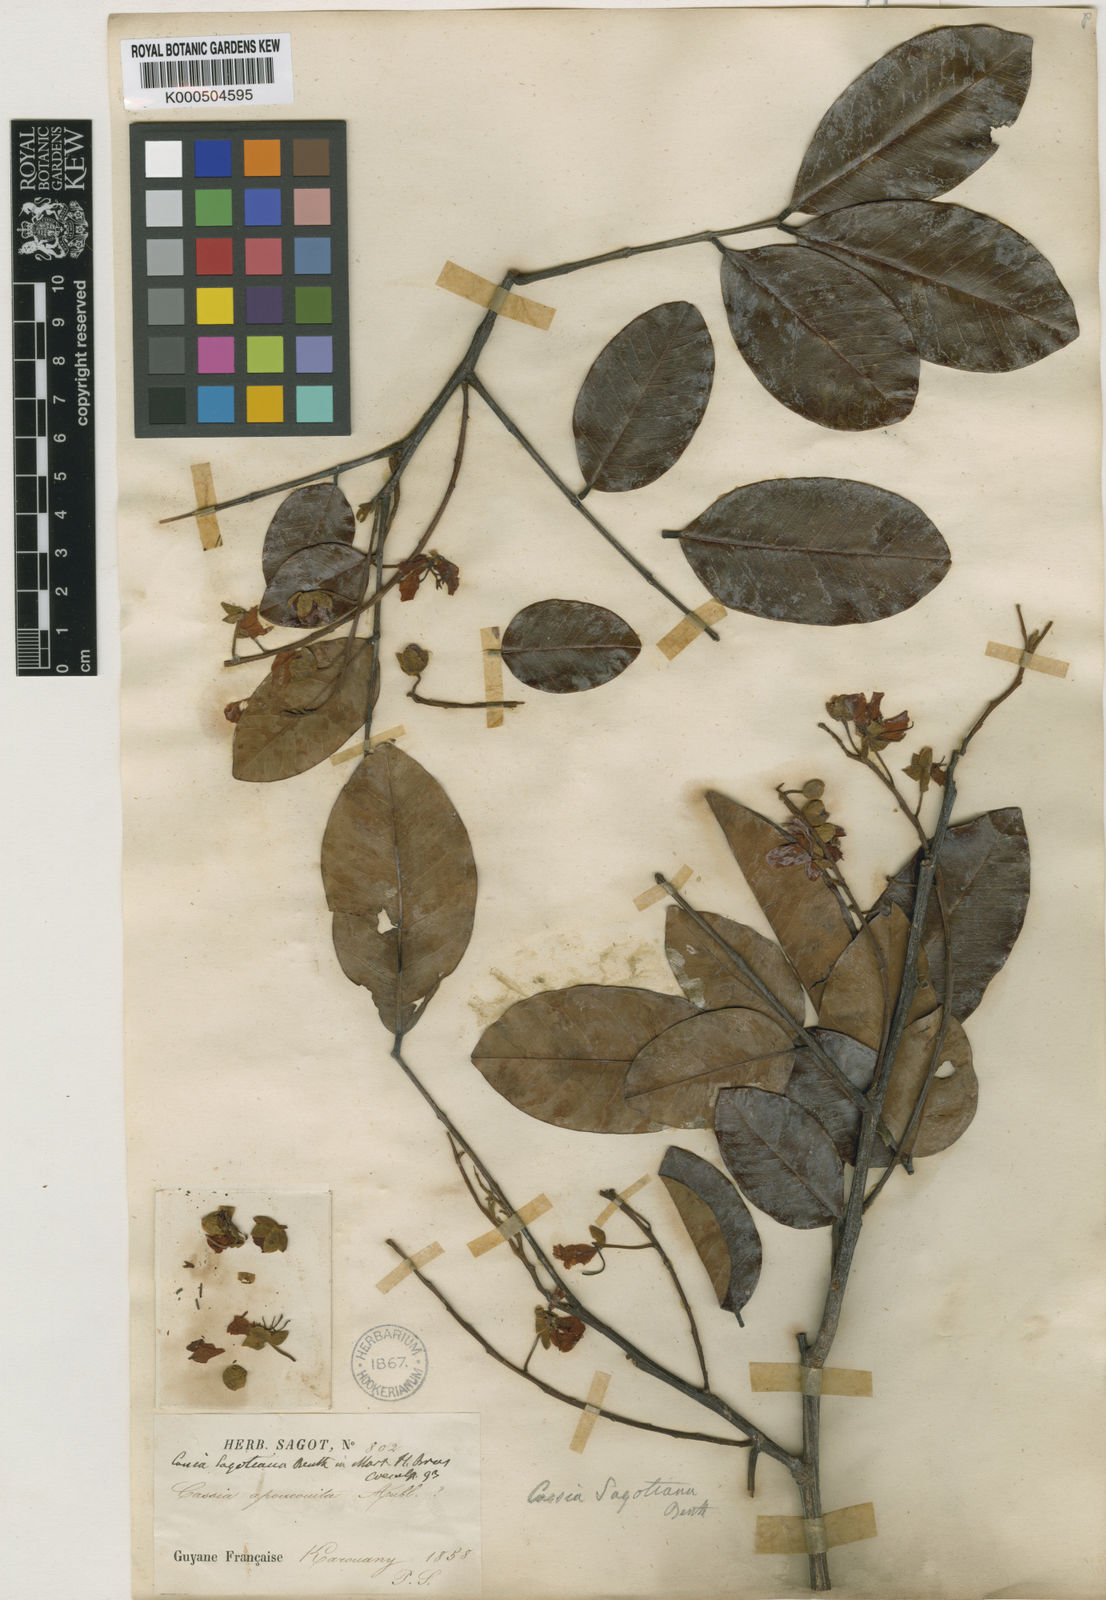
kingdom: Plantae
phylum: Tracheophyta
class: Magnoliopsida
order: Fabales
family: Fabaceae
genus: Cassia
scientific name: Cassia spruceana
